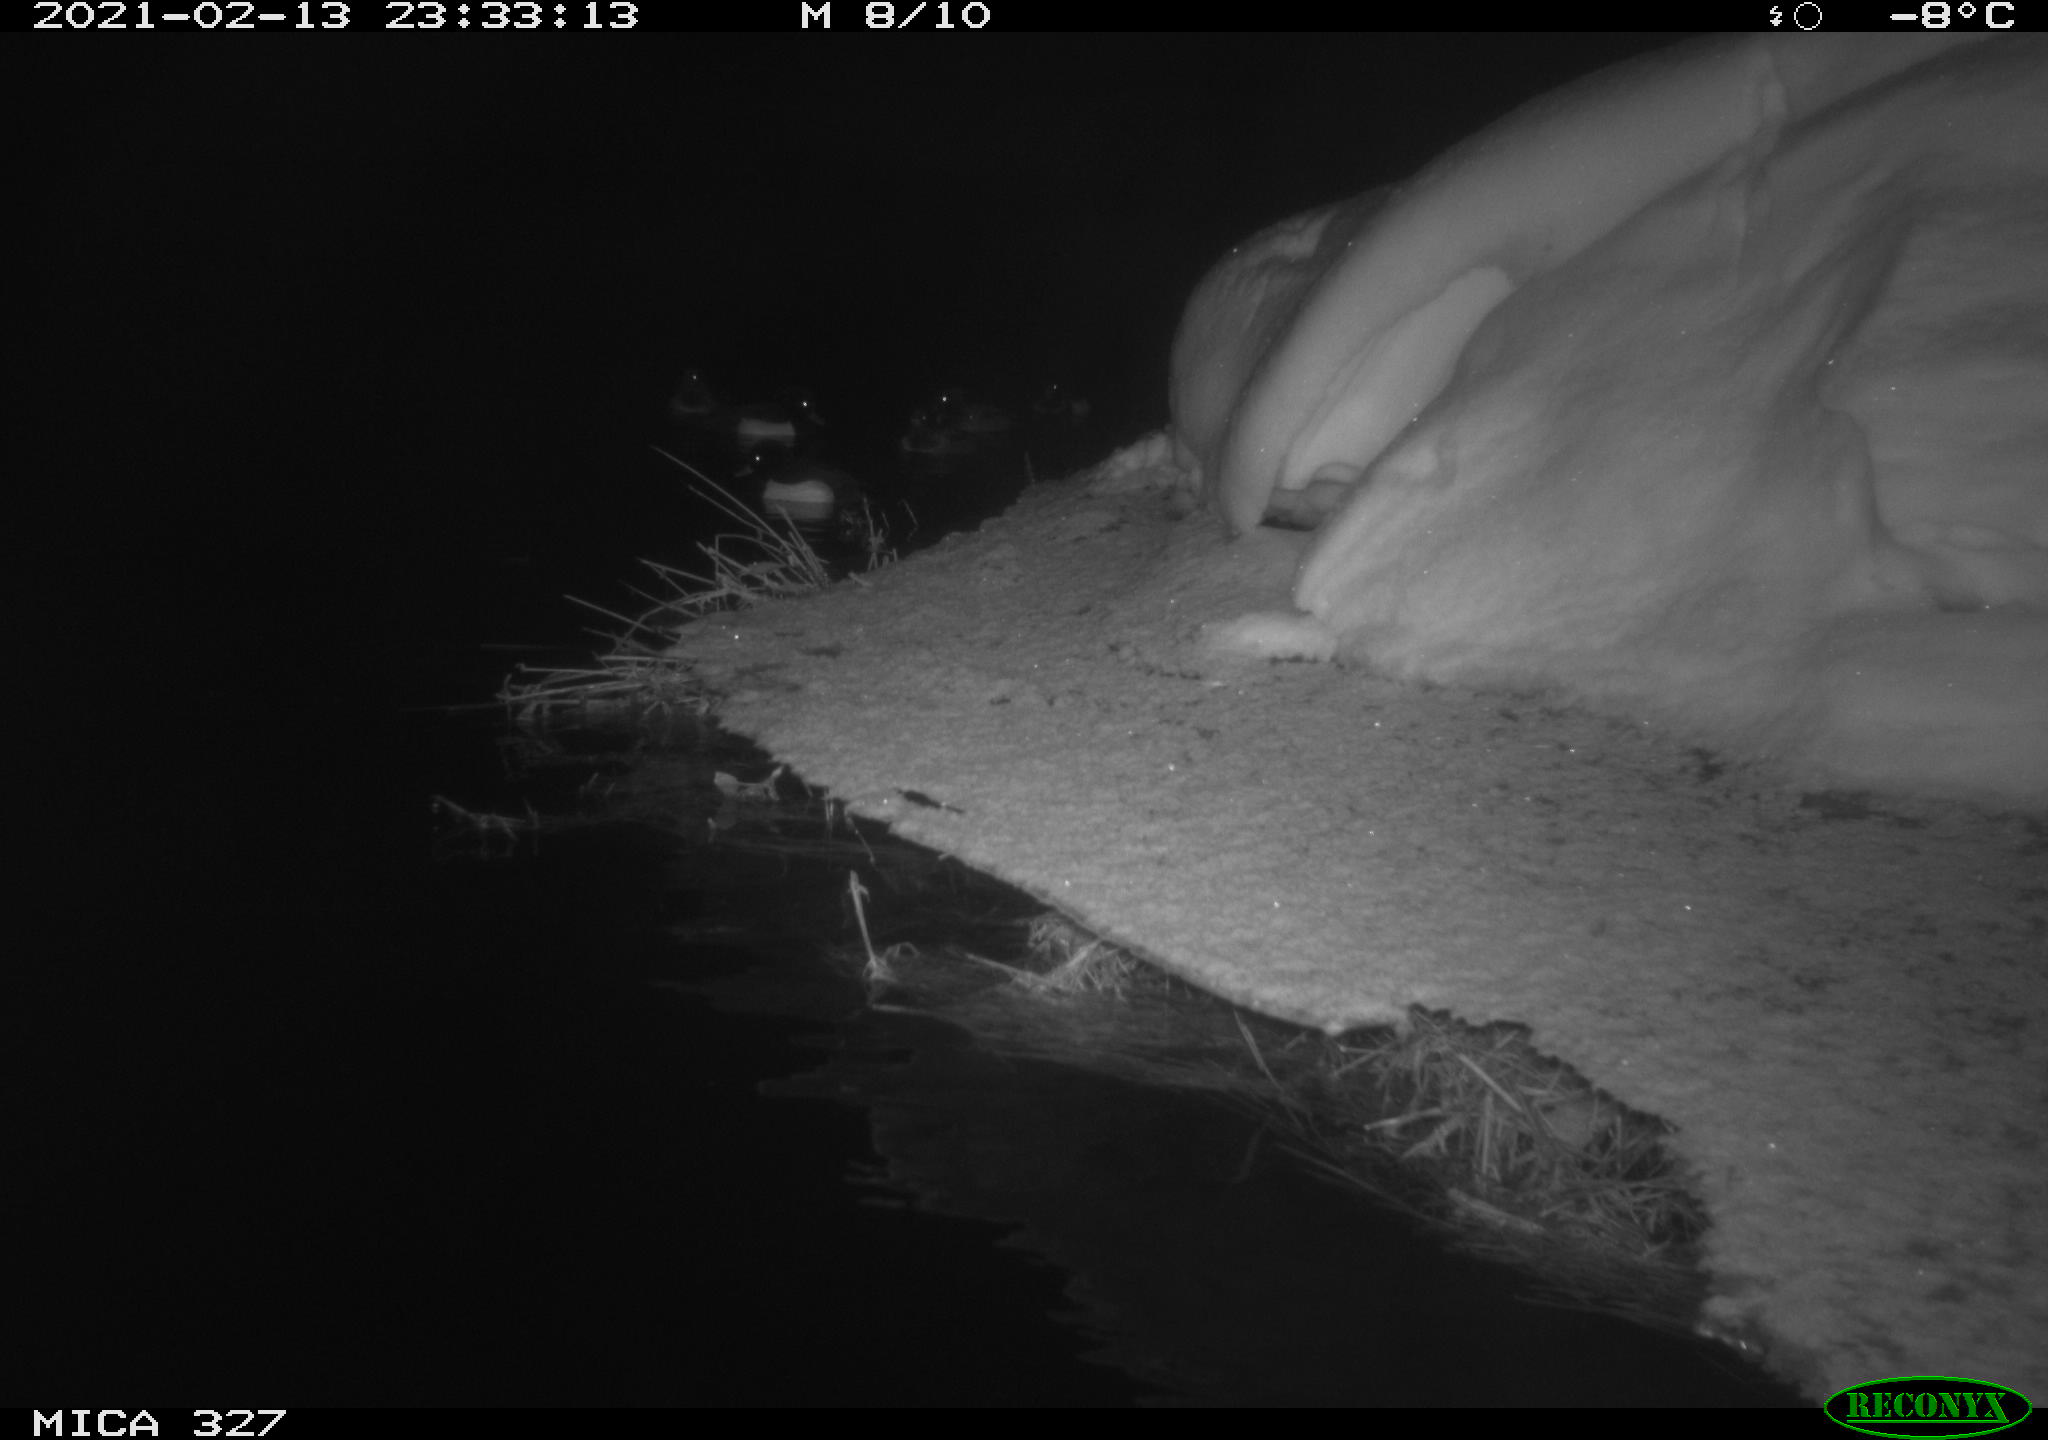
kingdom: Animalia
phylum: Chordata
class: Aves
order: Anseriformes
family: Anatidae
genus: Anas
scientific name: Anas
